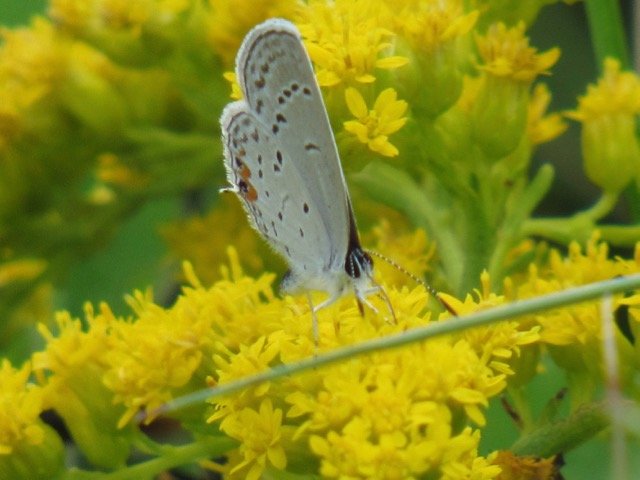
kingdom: Animalia
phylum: Arthropoda
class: Insecta
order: Lepidoptera
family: Lycaenidae
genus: Elkalyce
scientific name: Elkalyce comyntas
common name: Eastern Tailed-Blue
